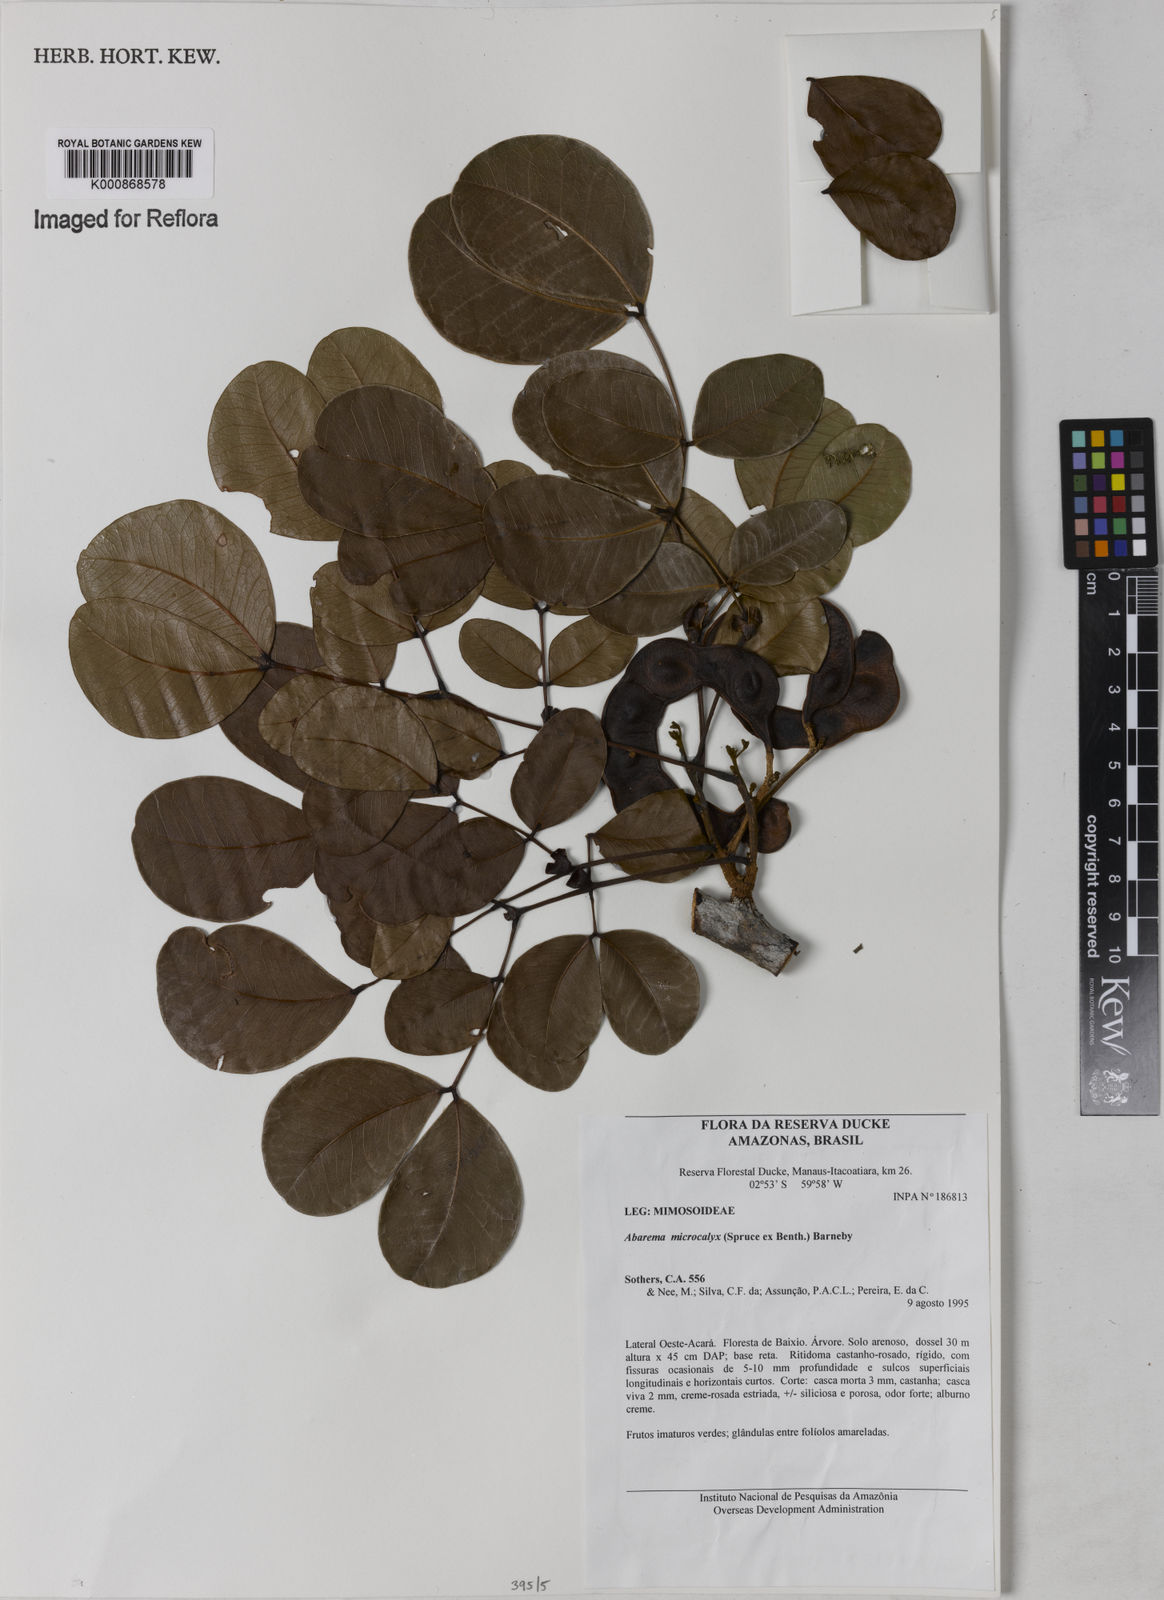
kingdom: Plantae
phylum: Tracheophyta
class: Magnoliopsida
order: Fabales
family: Fabaceae
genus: Jupunba
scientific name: Jupunba microcalyx
